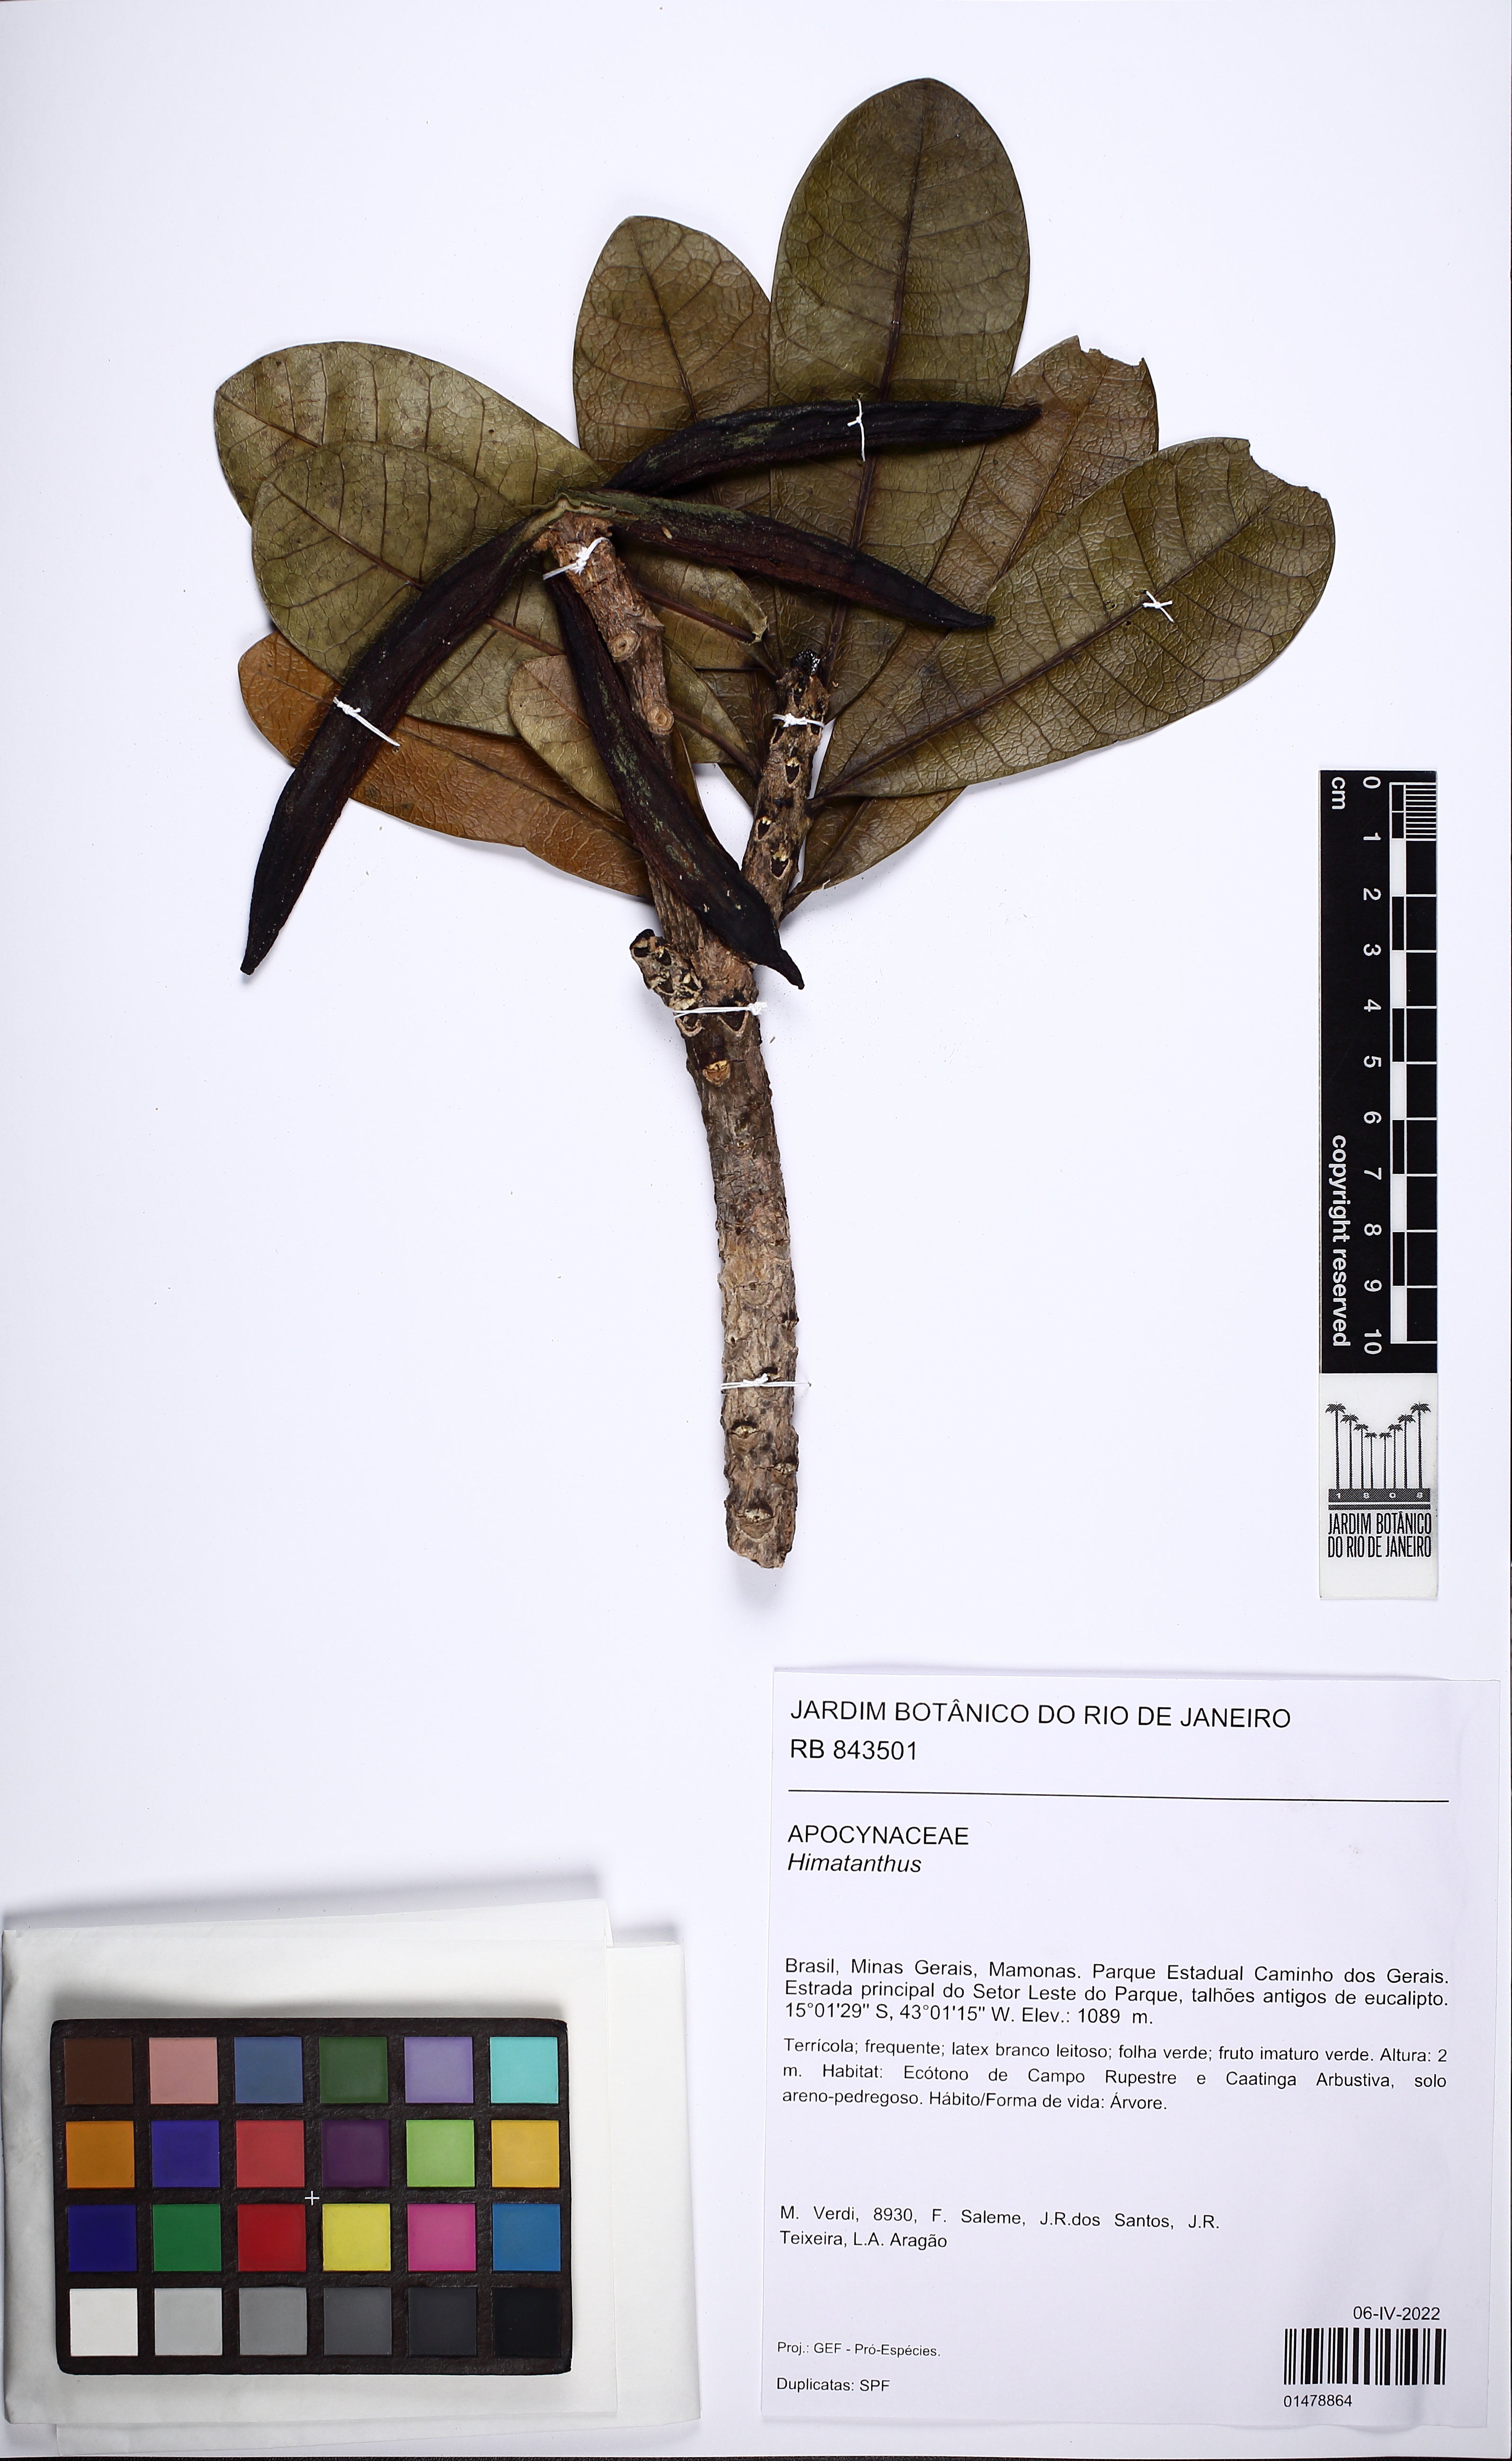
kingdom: Plantae
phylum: Tracheophyta
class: Magnoliopsida
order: Gentianales
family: Apocynaceae
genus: Himatanthus
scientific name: Himatanthus
